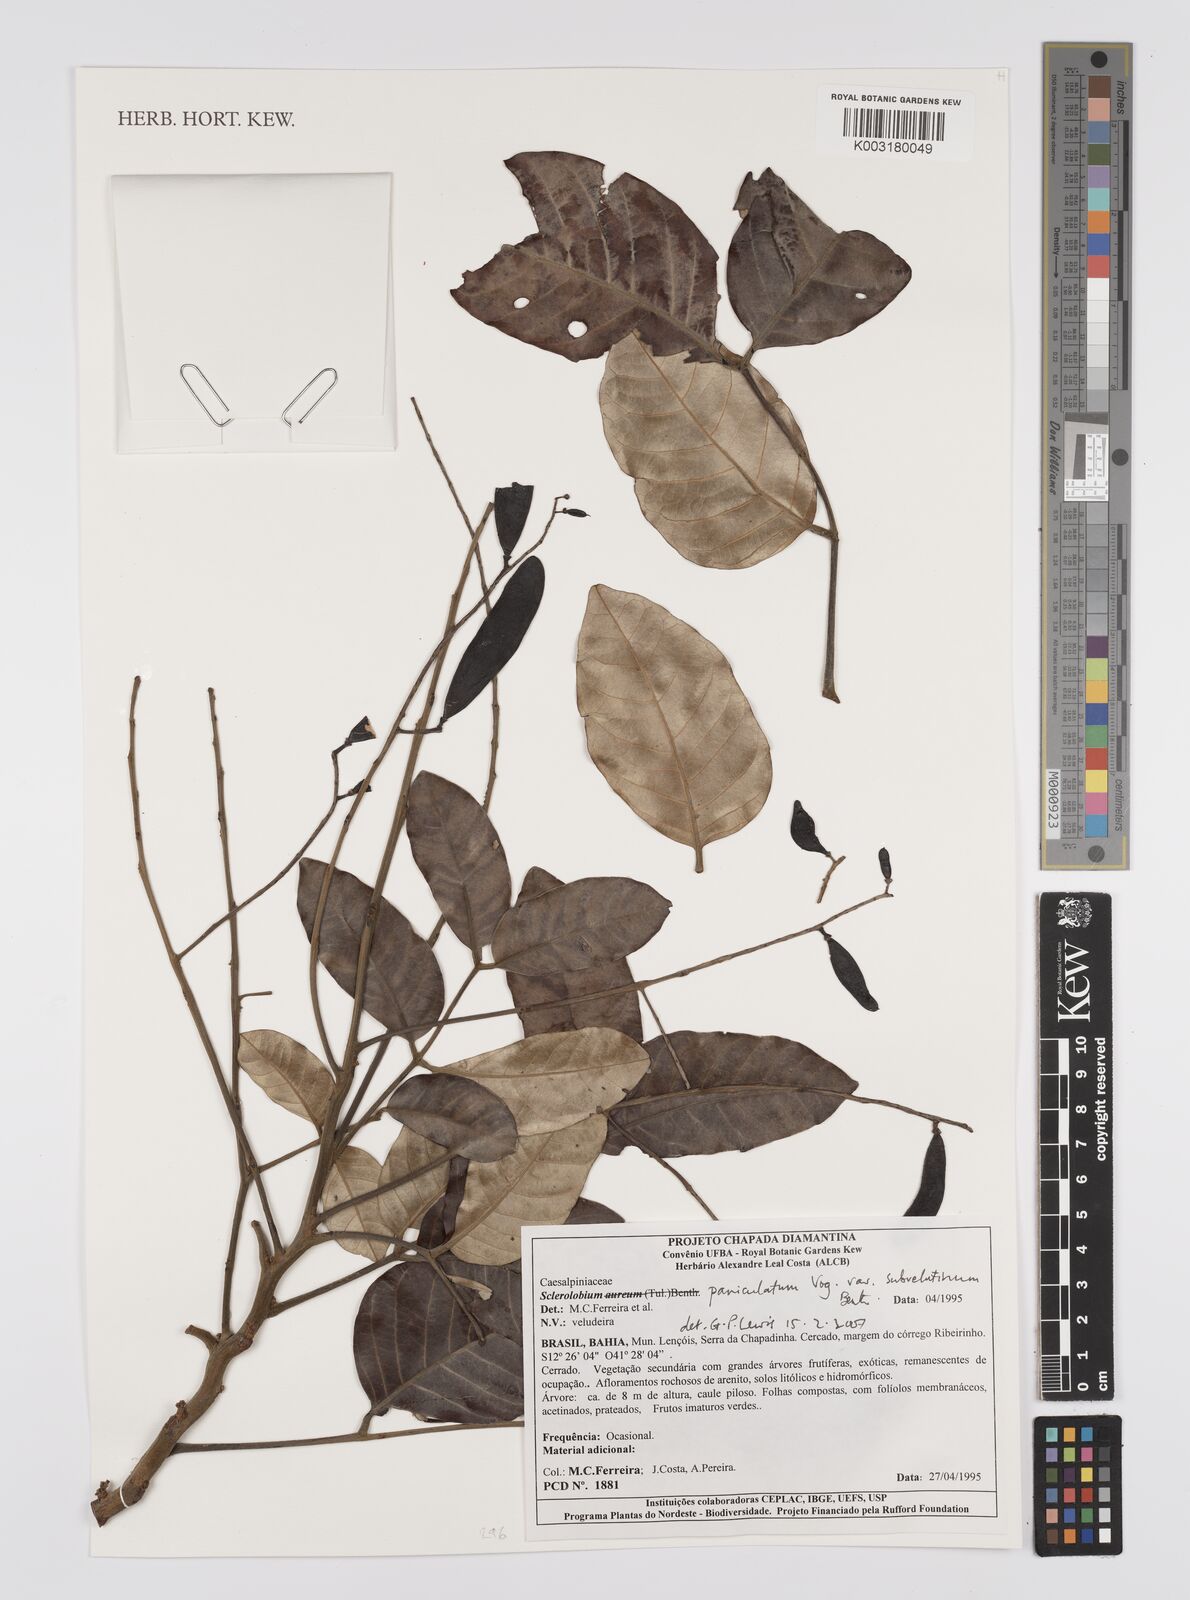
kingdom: Plantae
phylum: Tracheophyta
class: Magnoliopsida
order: Fabales
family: Fabaceae
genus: Tachigali
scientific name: Tachigali subvelutina
